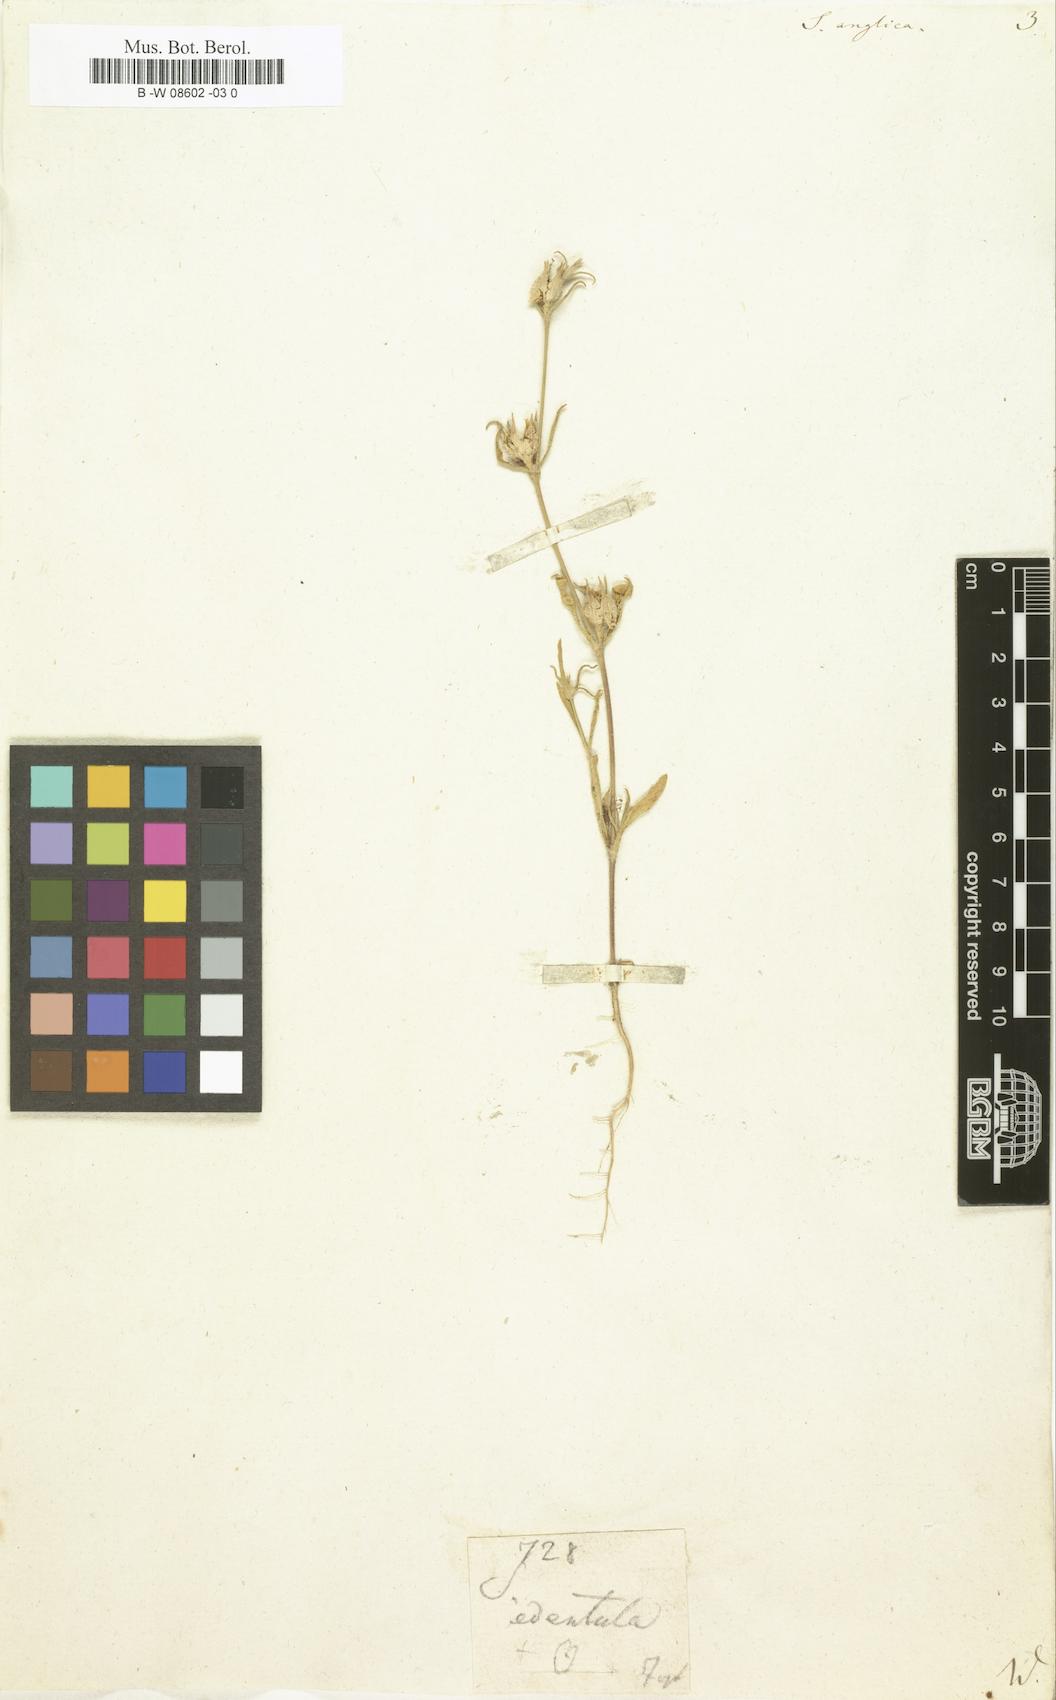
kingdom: Plantae
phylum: Tracheophyta
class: Magnoliopsida
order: Caryophyllales
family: Caryophyllaceae
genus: Silene
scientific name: Silene gallica
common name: Small-flowered catchfly
